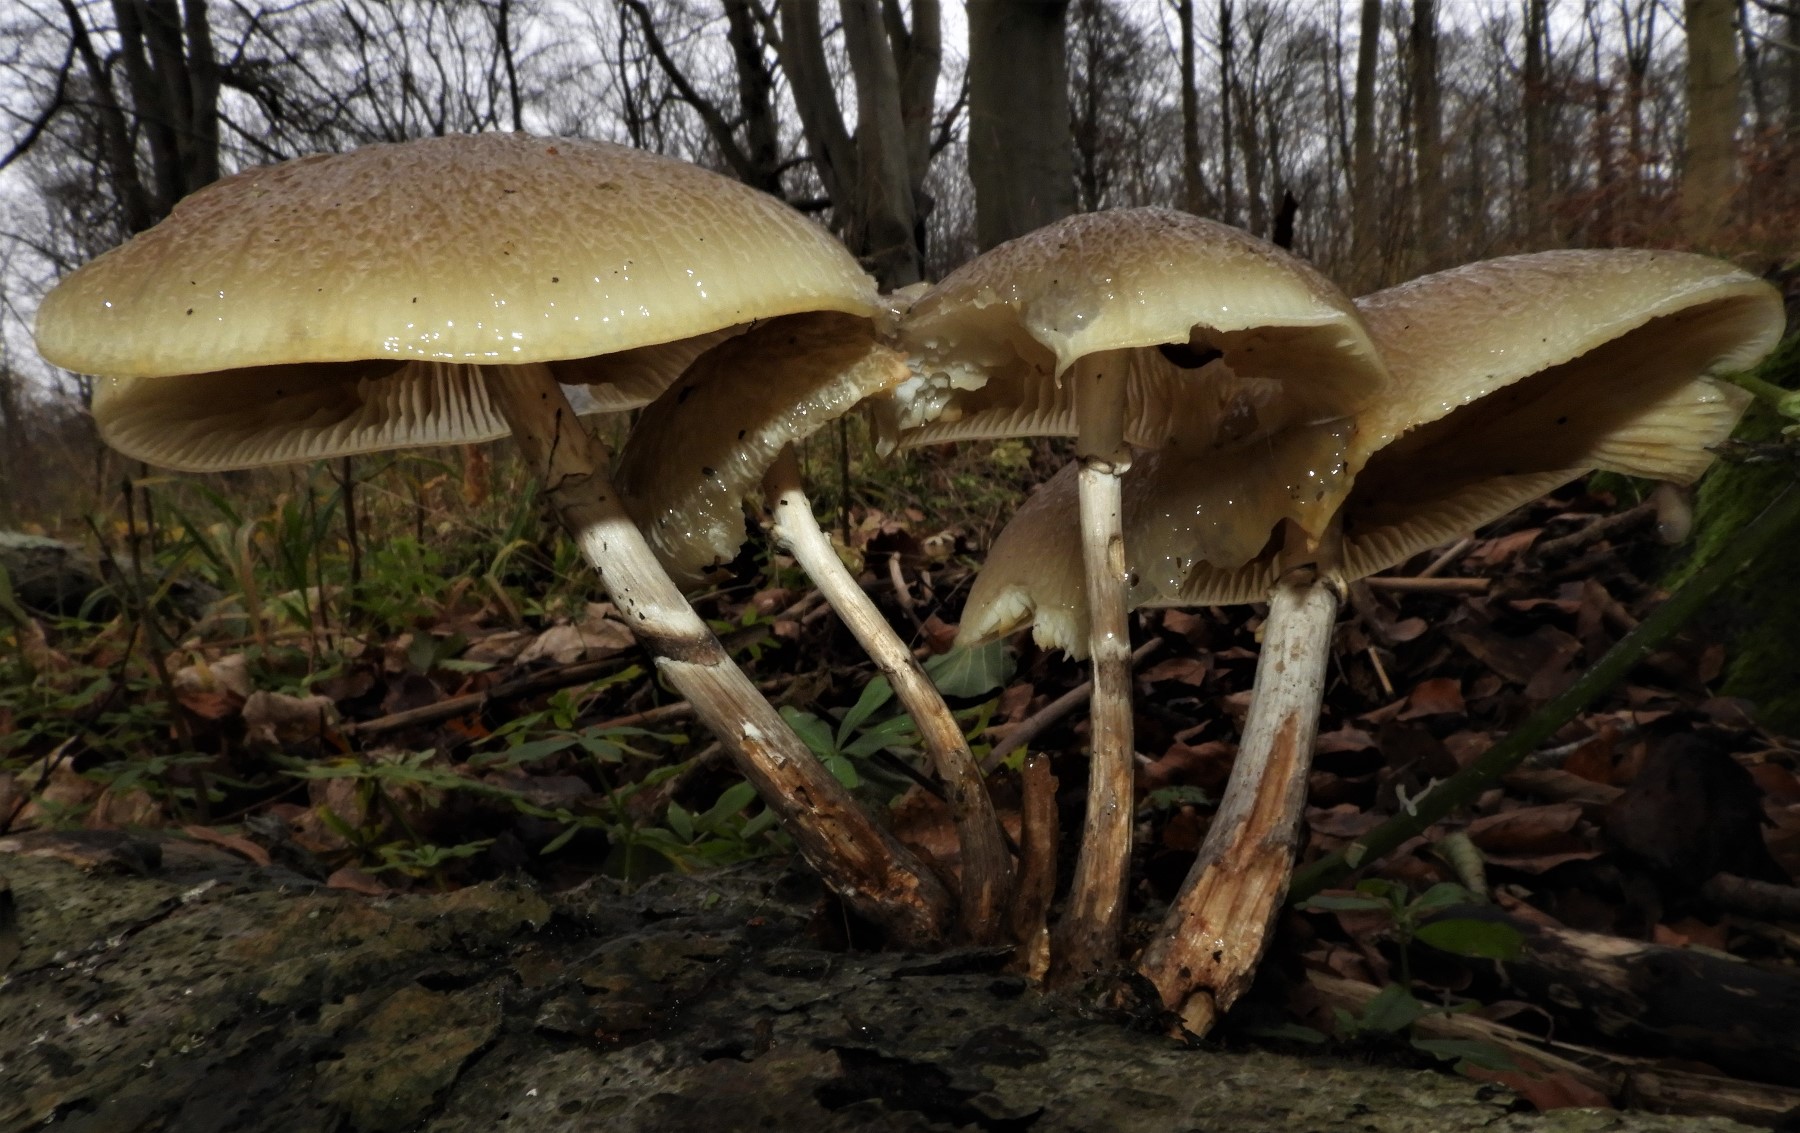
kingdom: Fungi
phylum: Basidiomycota
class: Agaricomycetes
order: Agaricales
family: Physalacriaceae
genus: Mucidula
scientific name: Mucidula mucida
